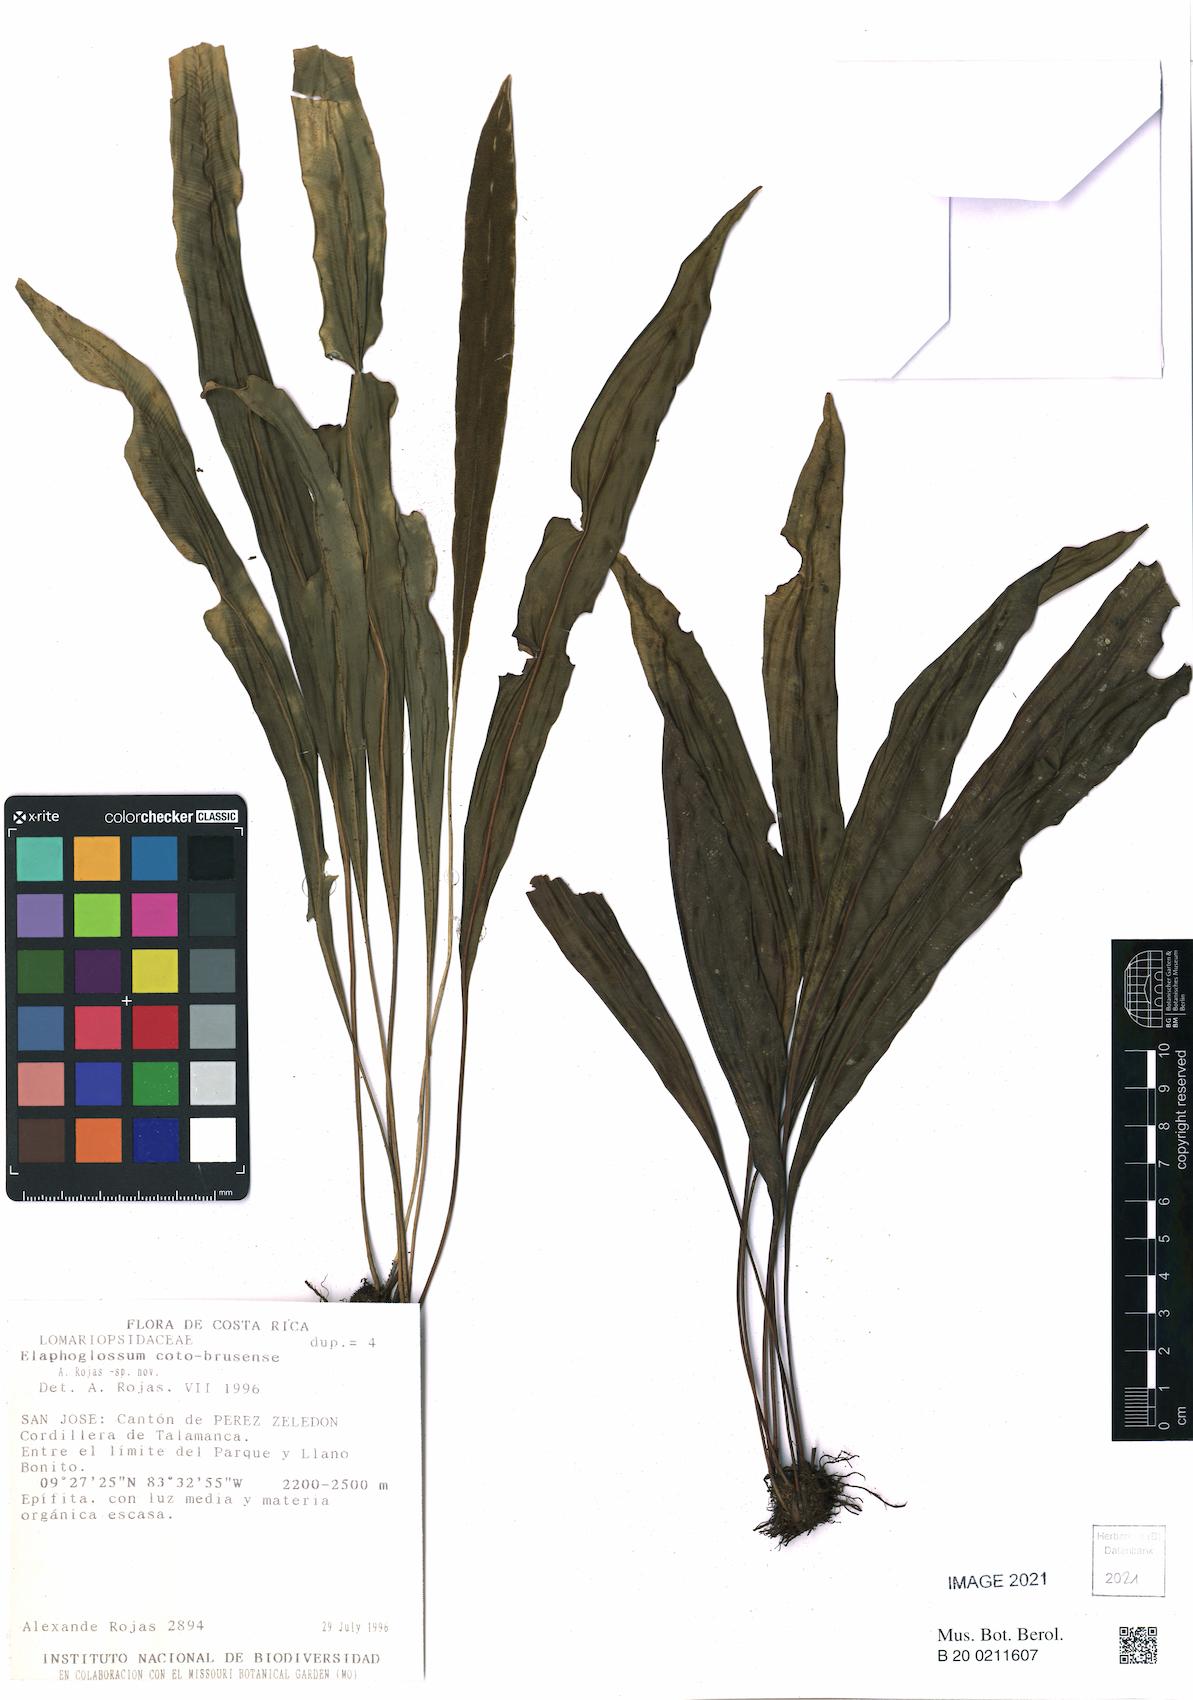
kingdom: Plantae
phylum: Tracheophyta
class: Polypodiopsida
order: Polypodiales
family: Dryopteridaceae
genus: Elaphoglossum
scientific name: Elaphoglossum coto-brusense
